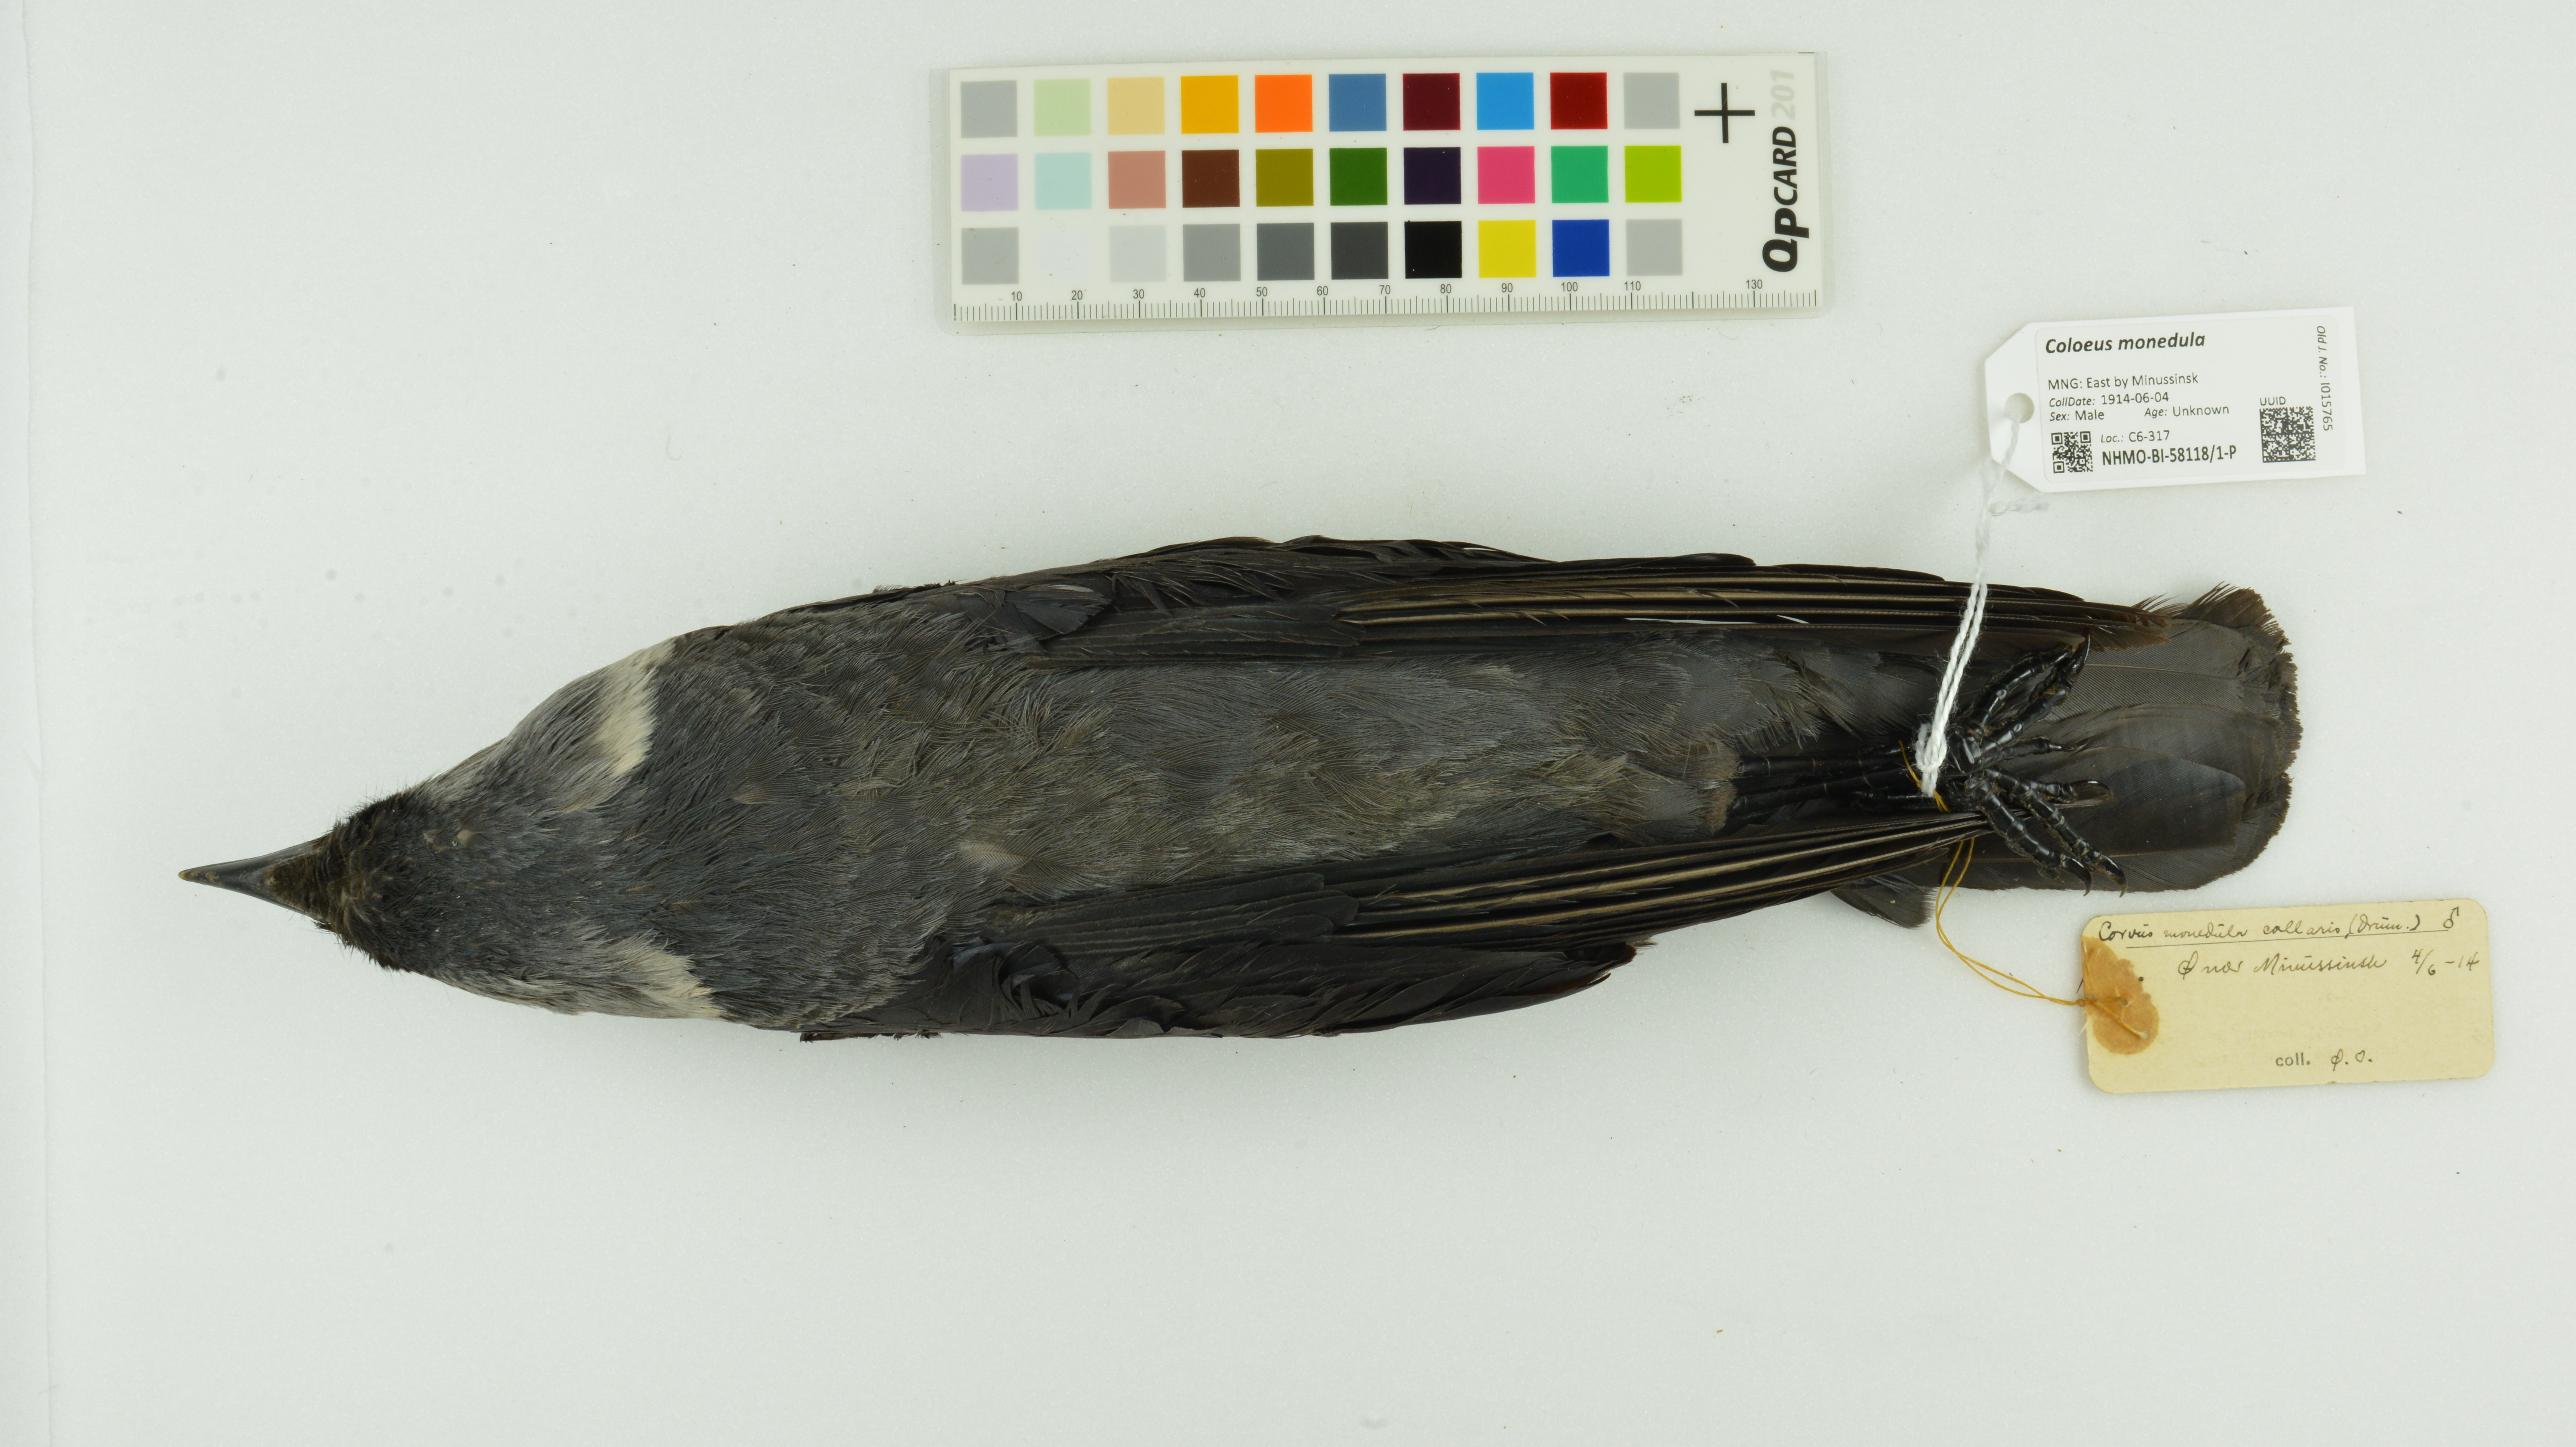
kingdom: Animalia
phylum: Chordata
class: Aves
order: Passeriformes
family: Corvidae
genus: Coloeus
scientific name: Coloeus monedula
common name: Western jackdaw
